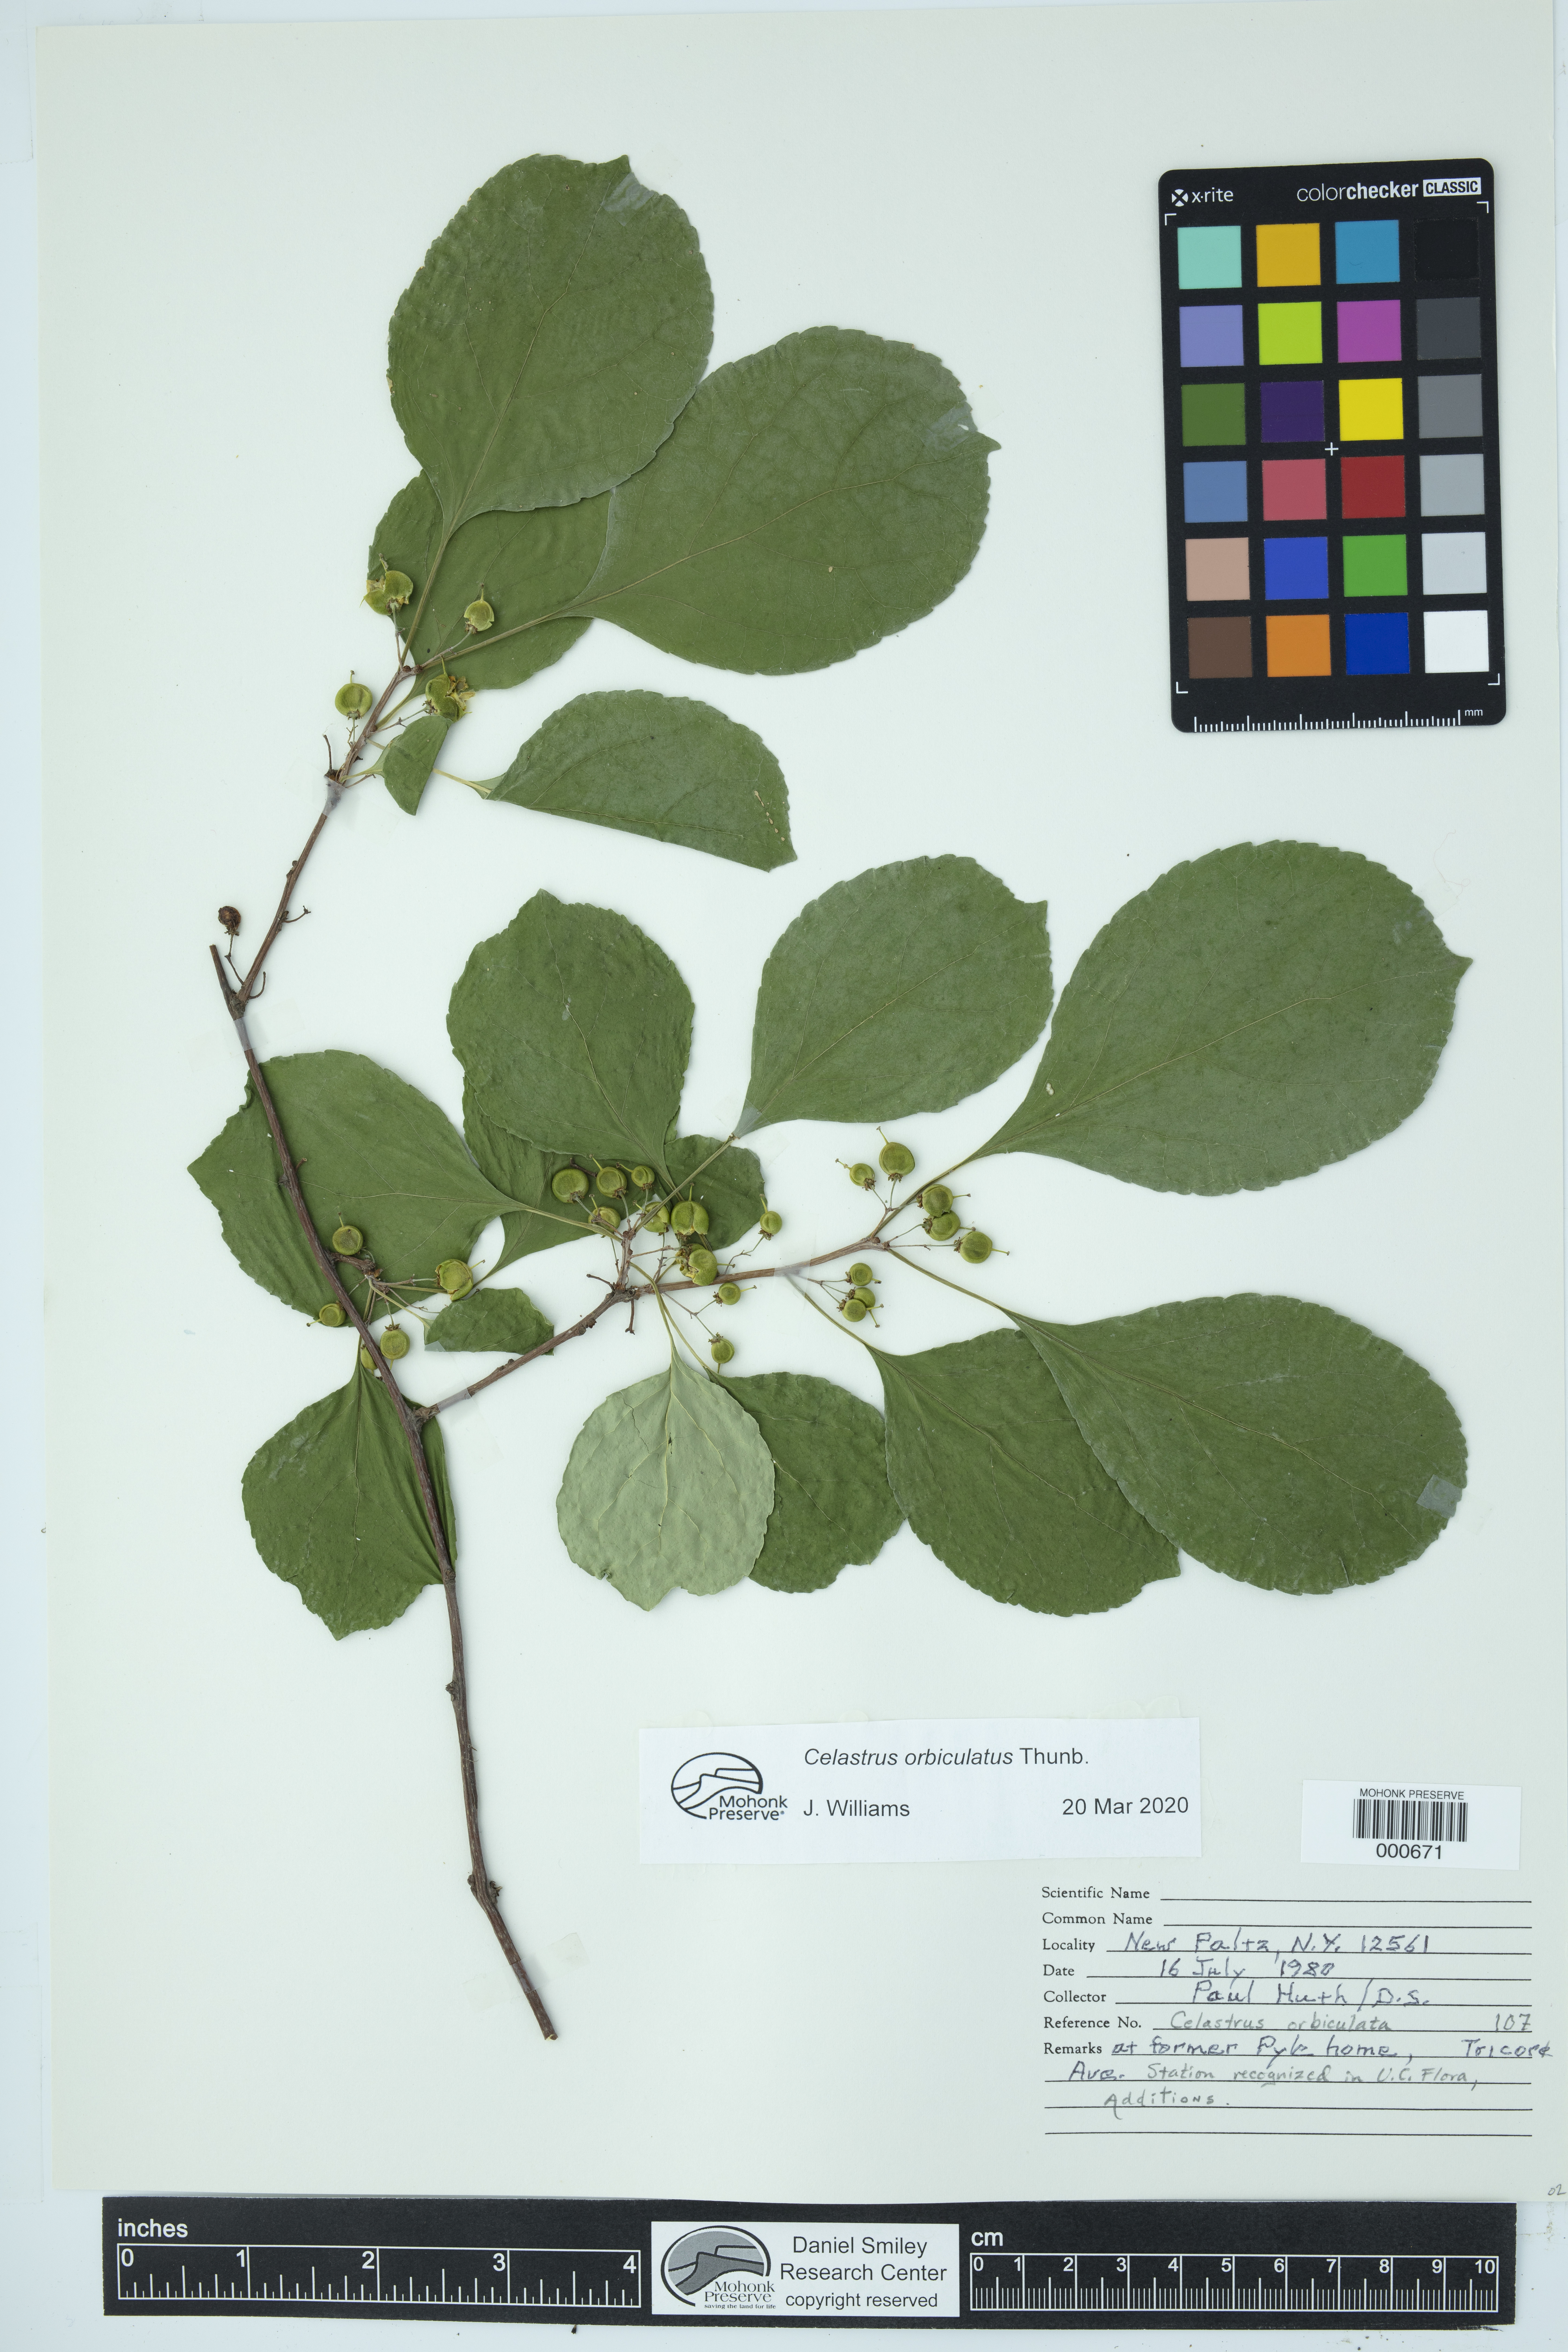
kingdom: Plantae
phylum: Tracheophyta
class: Magnoliopsida
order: Celastrales
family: Celastraceae
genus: Celastrus
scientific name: Celastrus orbiculatus
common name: Oriental bittersweet
